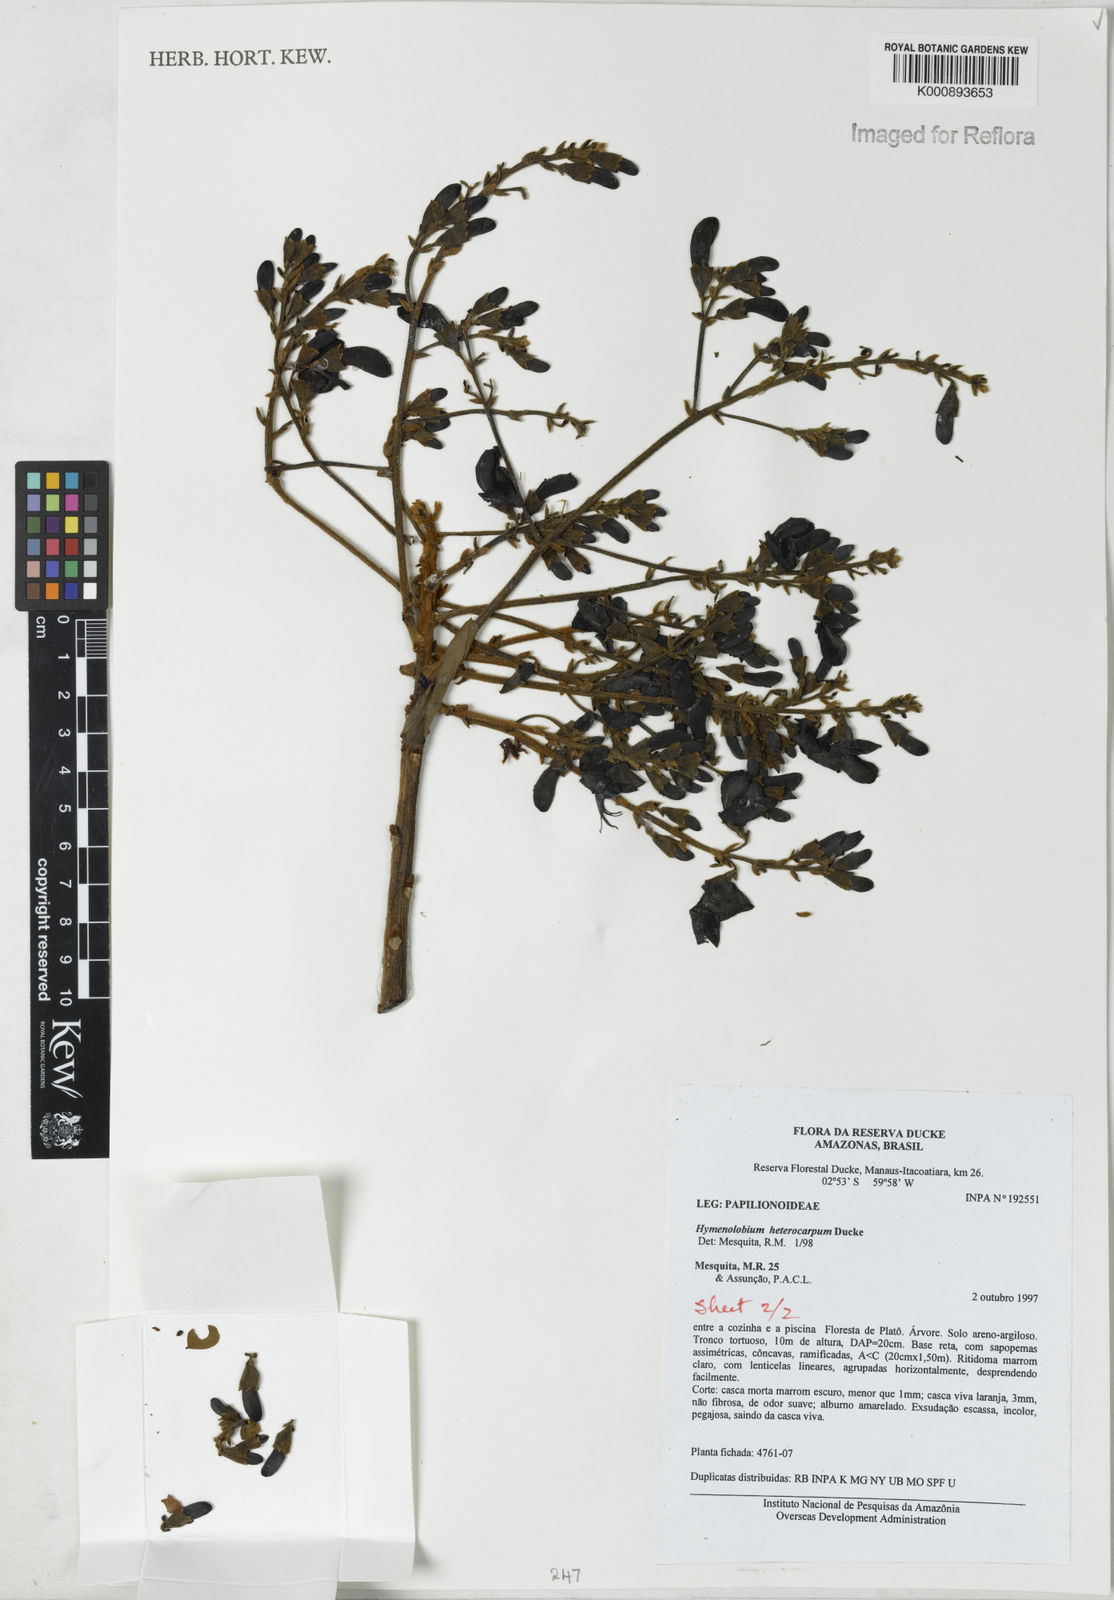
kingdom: Plantae
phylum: Tracheophyta
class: Magnoliopsida
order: Fabales
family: Fabaceae
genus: Hymenolobium
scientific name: Hymenolobium heterocarpum
